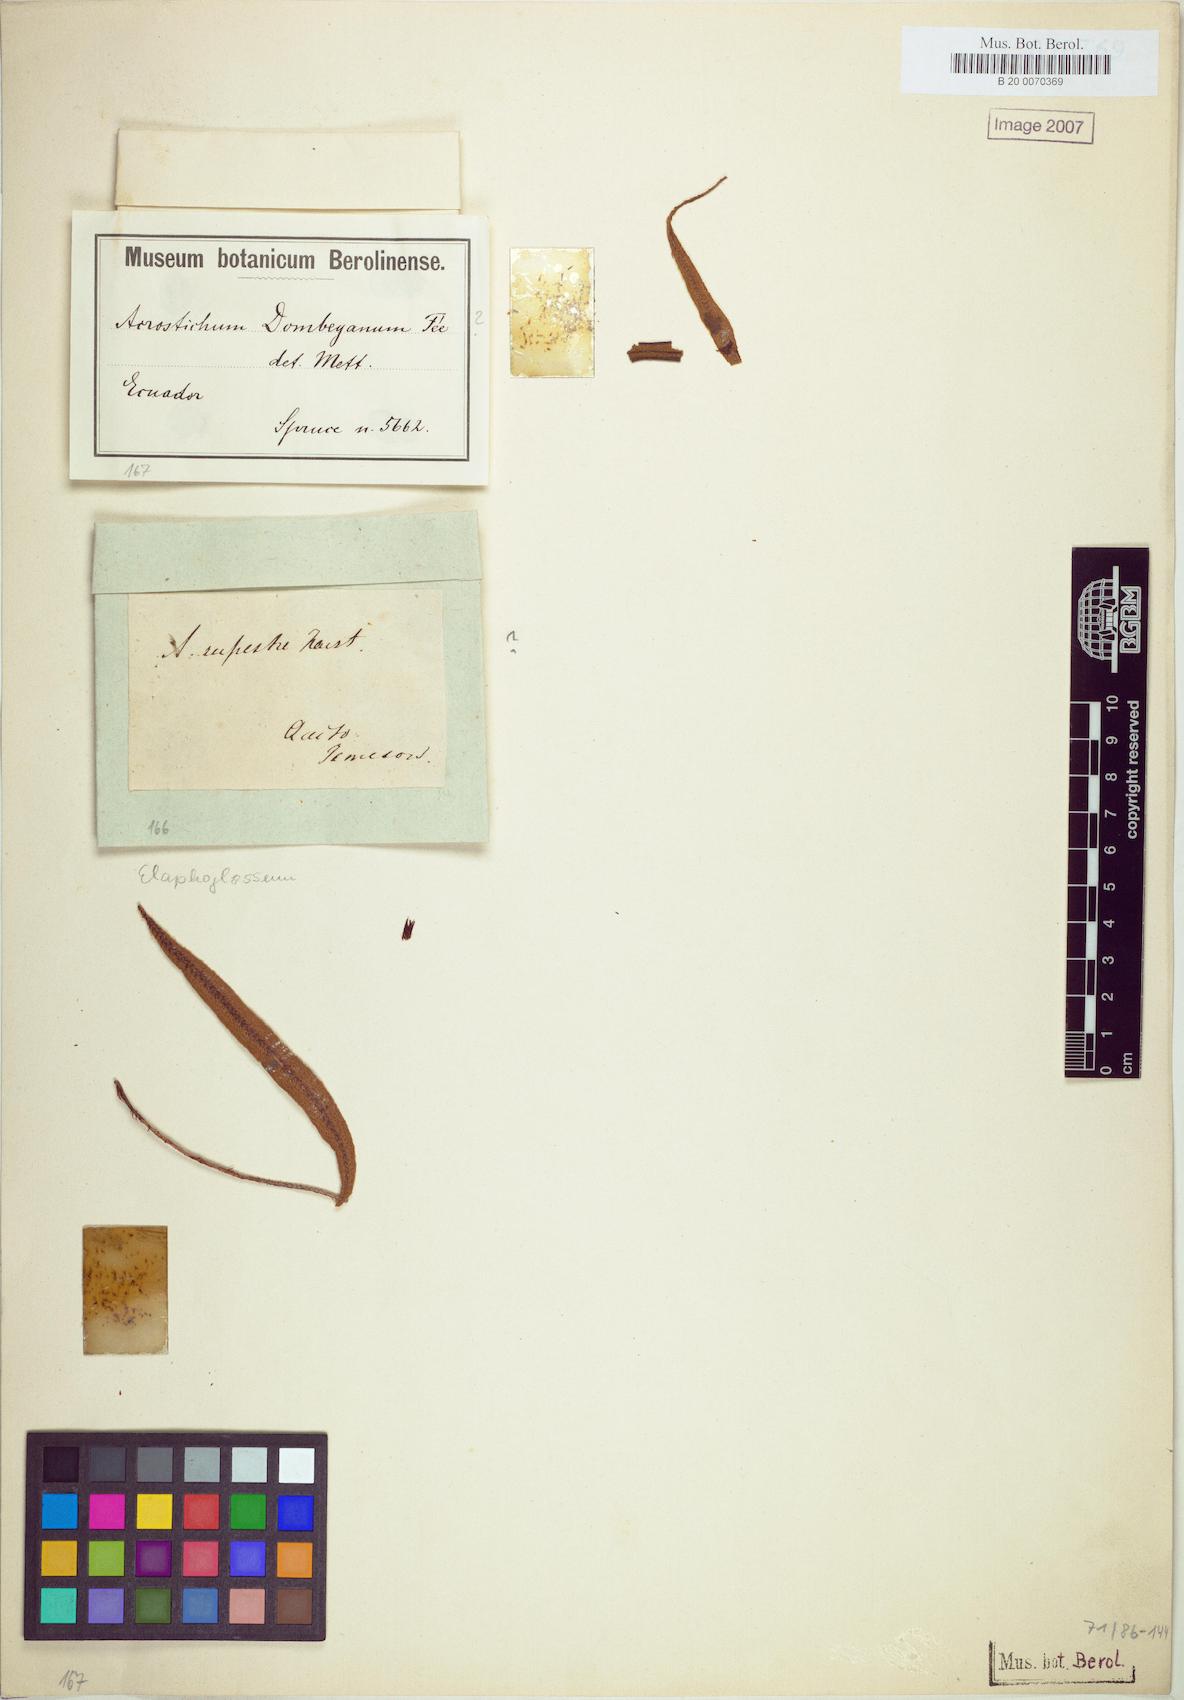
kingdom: Plantae
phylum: Tracheophyta
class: Polypodiopsida
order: Polypodiales
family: Dryopteridaceae
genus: Elaphoglossum
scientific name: Elaphoglossum dombeyanum
